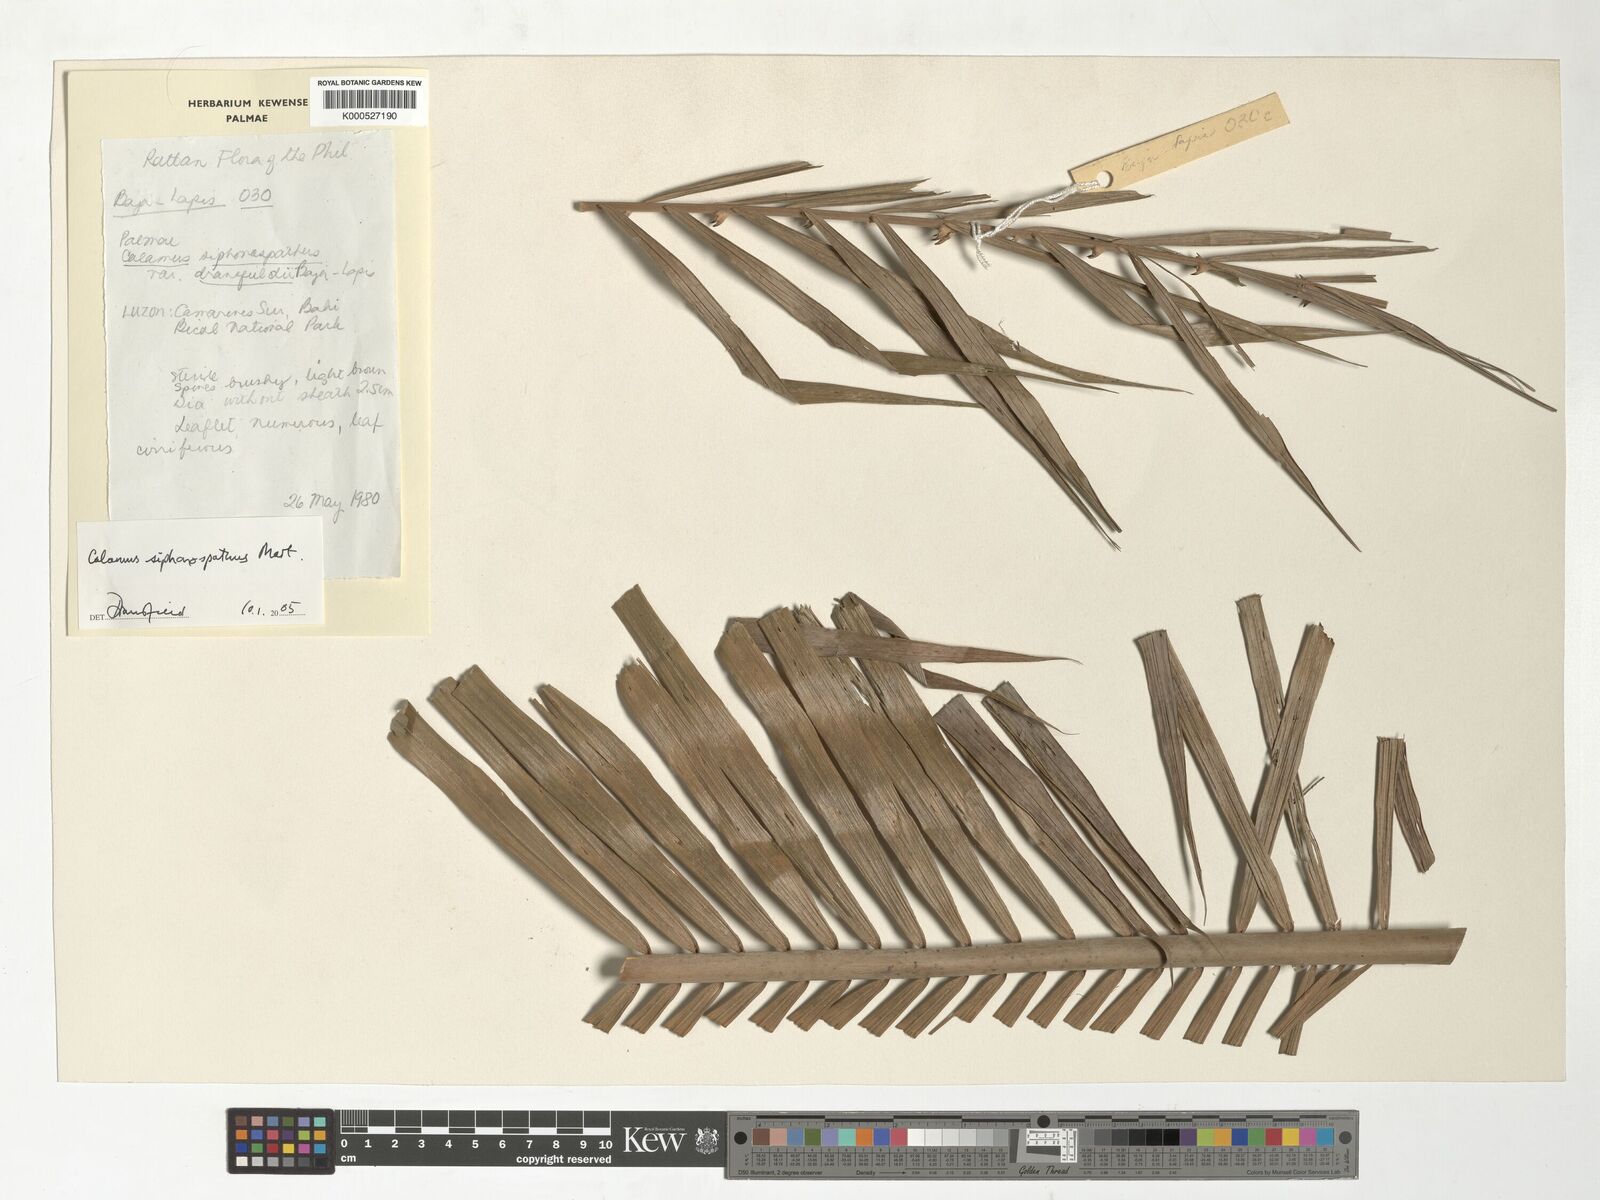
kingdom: Plantae
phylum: Tracheophyta
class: Liliopsida
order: Arecales
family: Arecaceae
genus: Calamus
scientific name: Calamus siphonospathus
